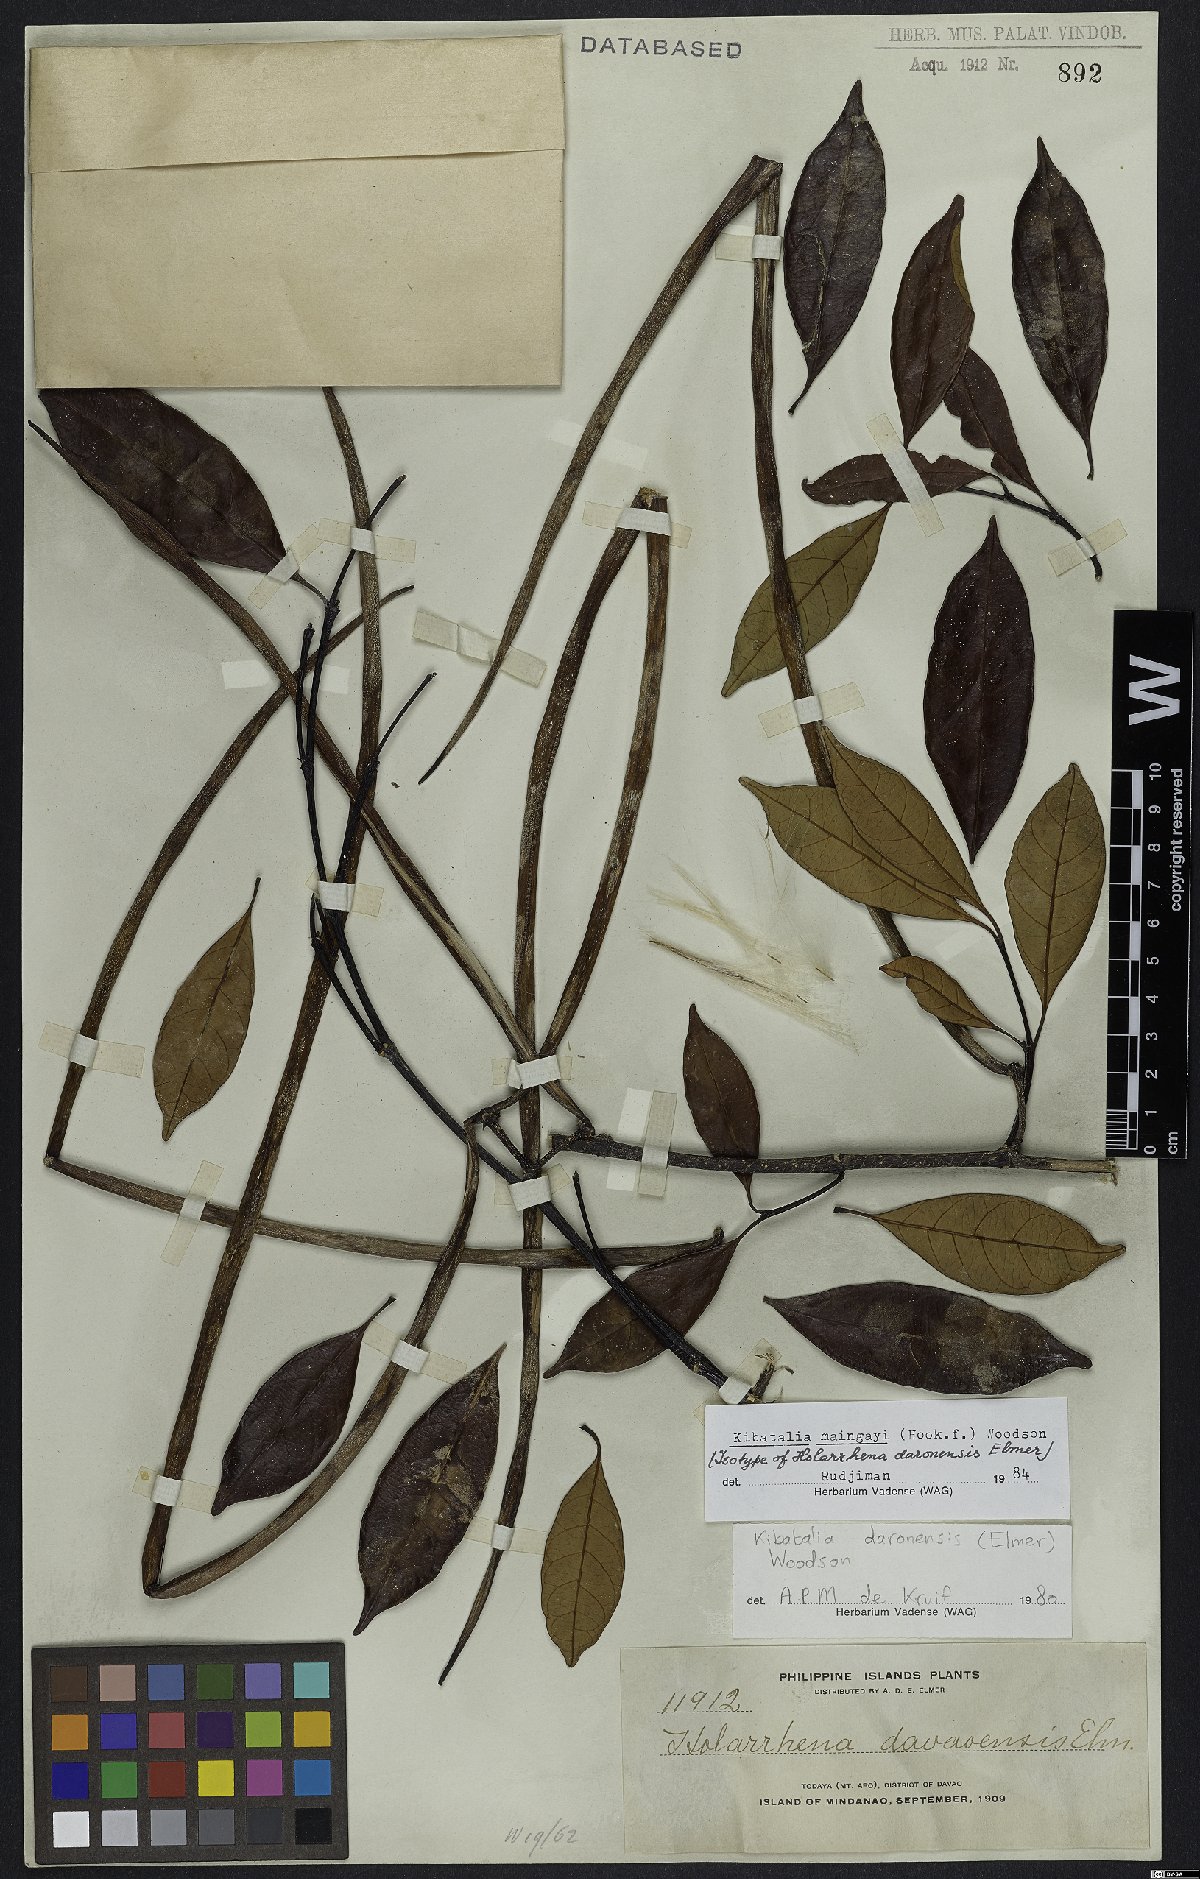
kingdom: Plantae
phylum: Tracheophyta
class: Magnoliopsida
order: Gentianales
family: Apocynaceae
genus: Kibatalia
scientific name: Kibatalia maingayi
